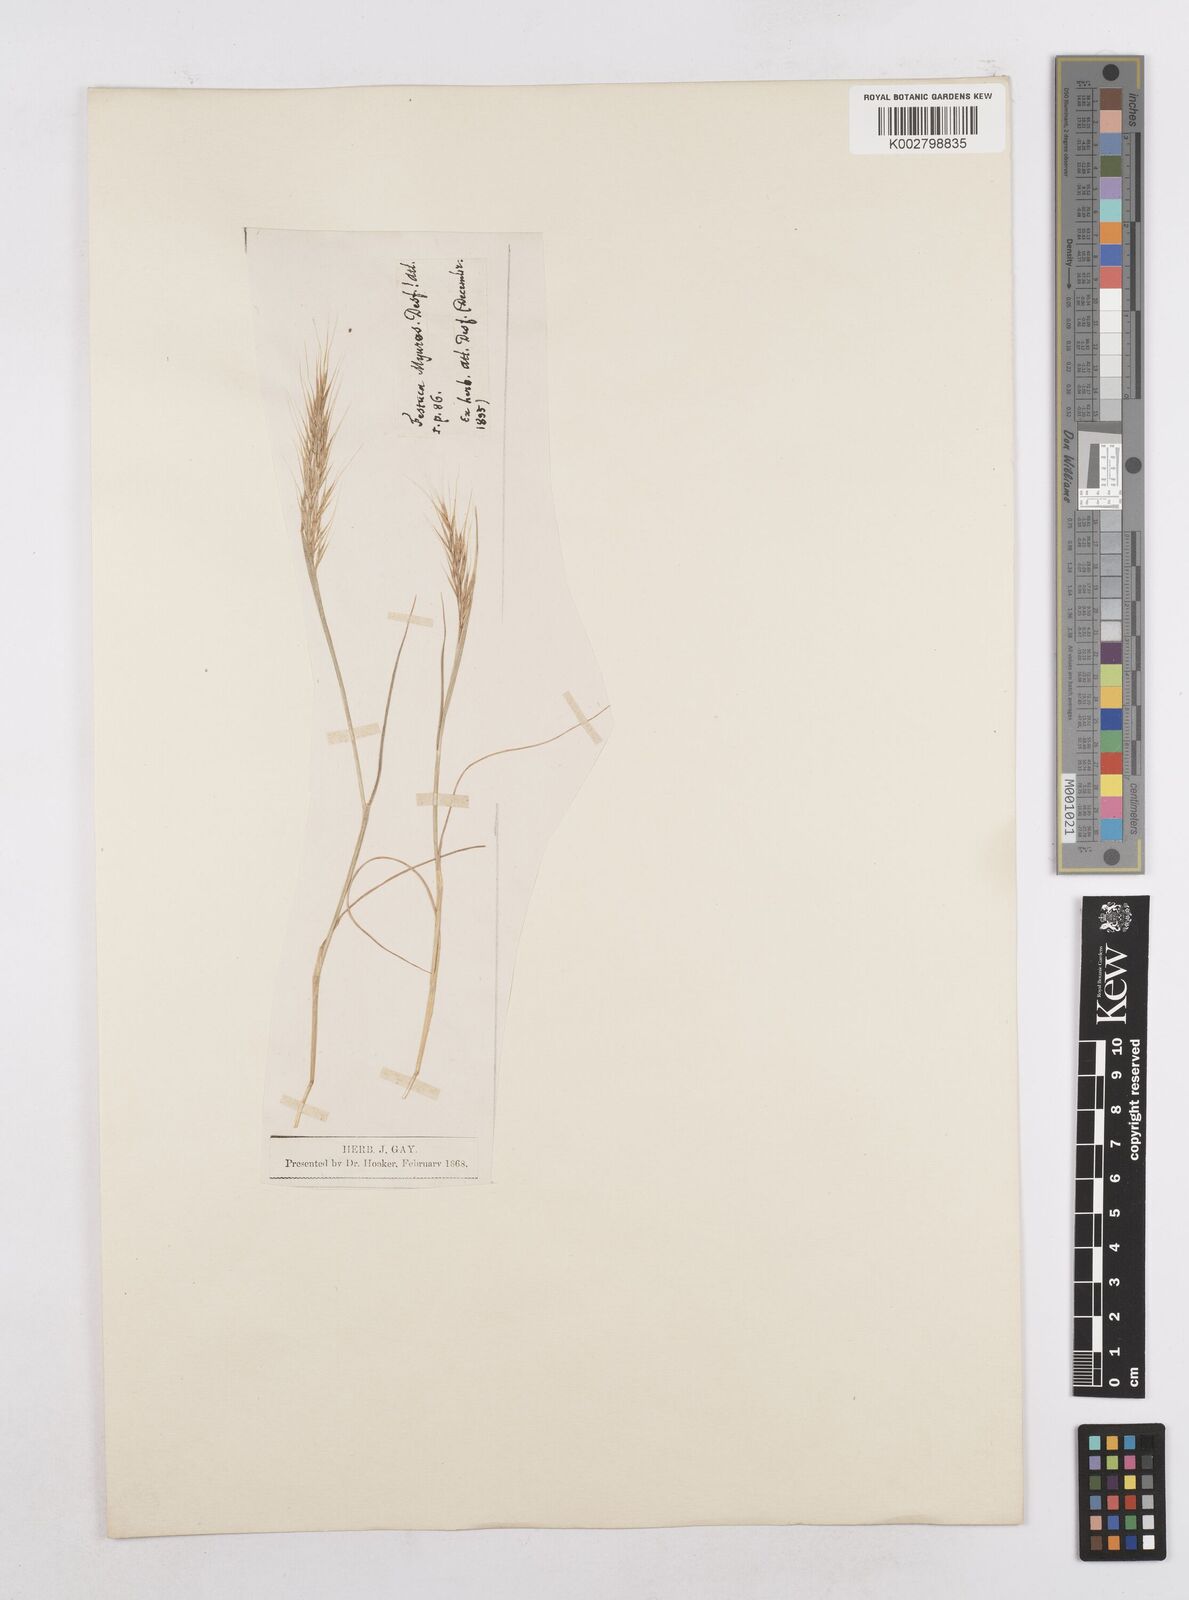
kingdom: Plantae
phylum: Tracheophyta
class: Liliopsida
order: Poales
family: Poaceae
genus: Festuca
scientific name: Festuca membranacea
